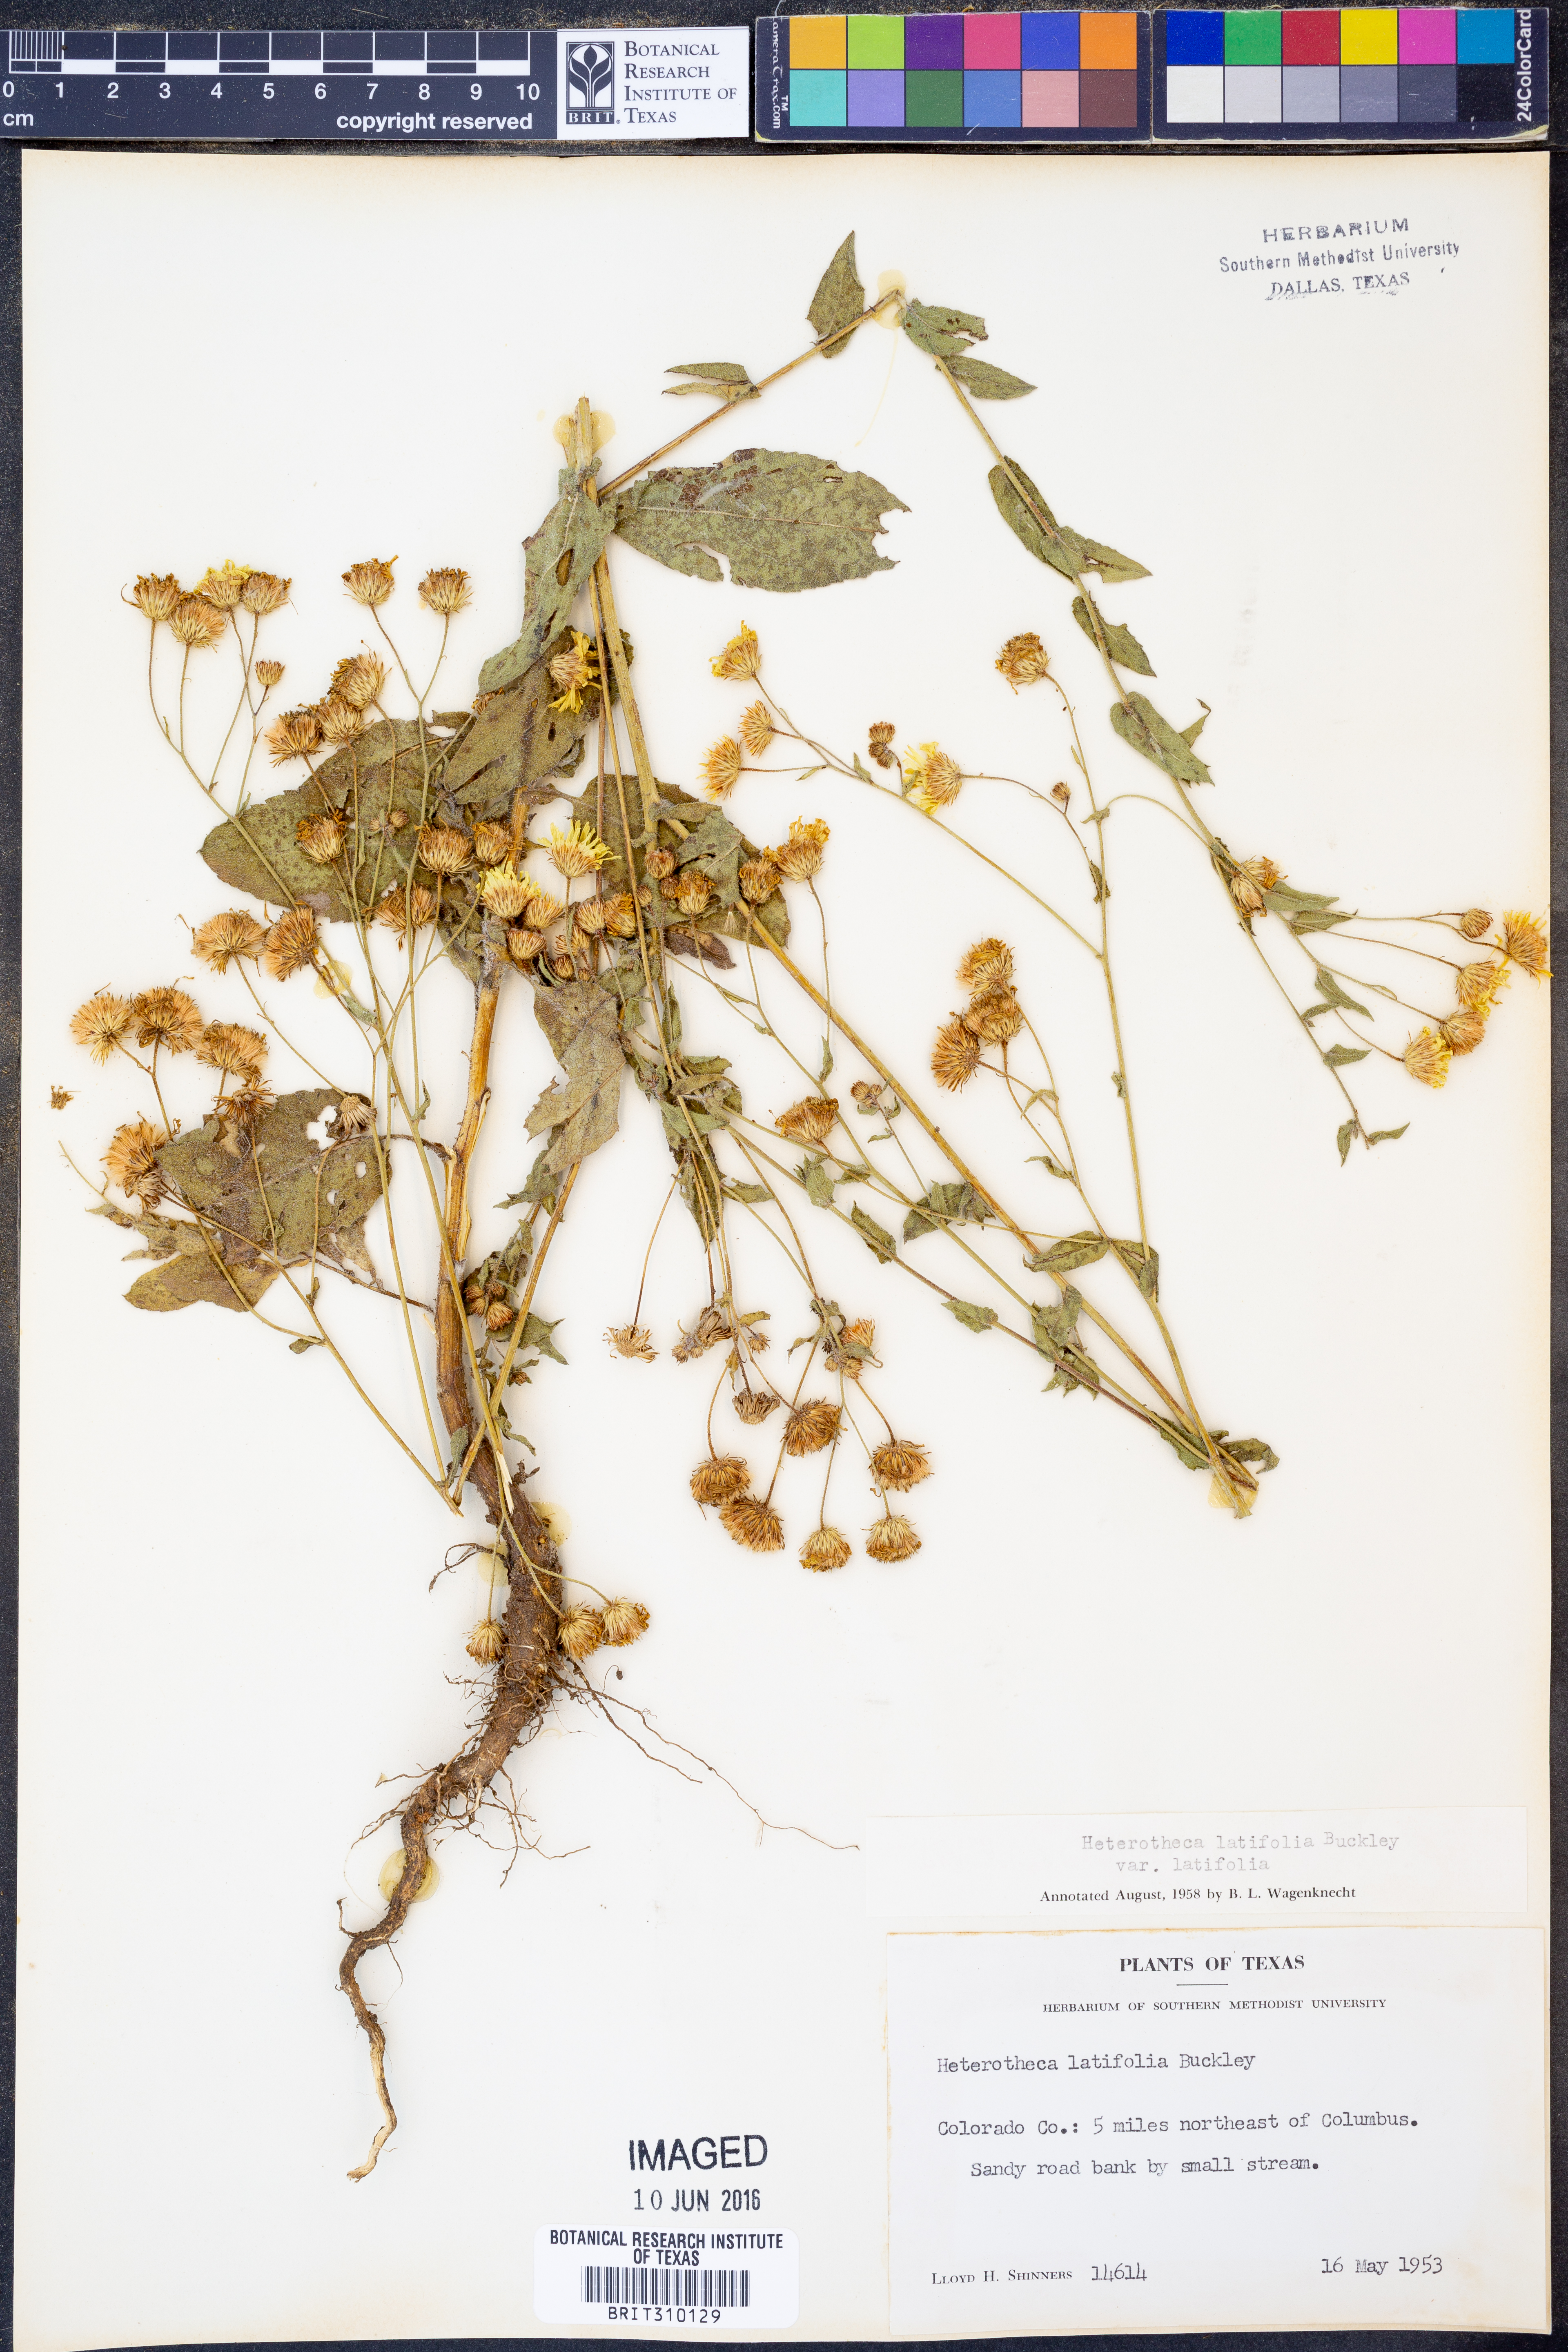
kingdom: Plantae
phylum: Tracheophyta
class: Magnoliopsida
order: Asterales
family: Asteraceae
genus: Heterotheca
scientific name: Heterotheca subaxillaris
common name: Camphorweed
